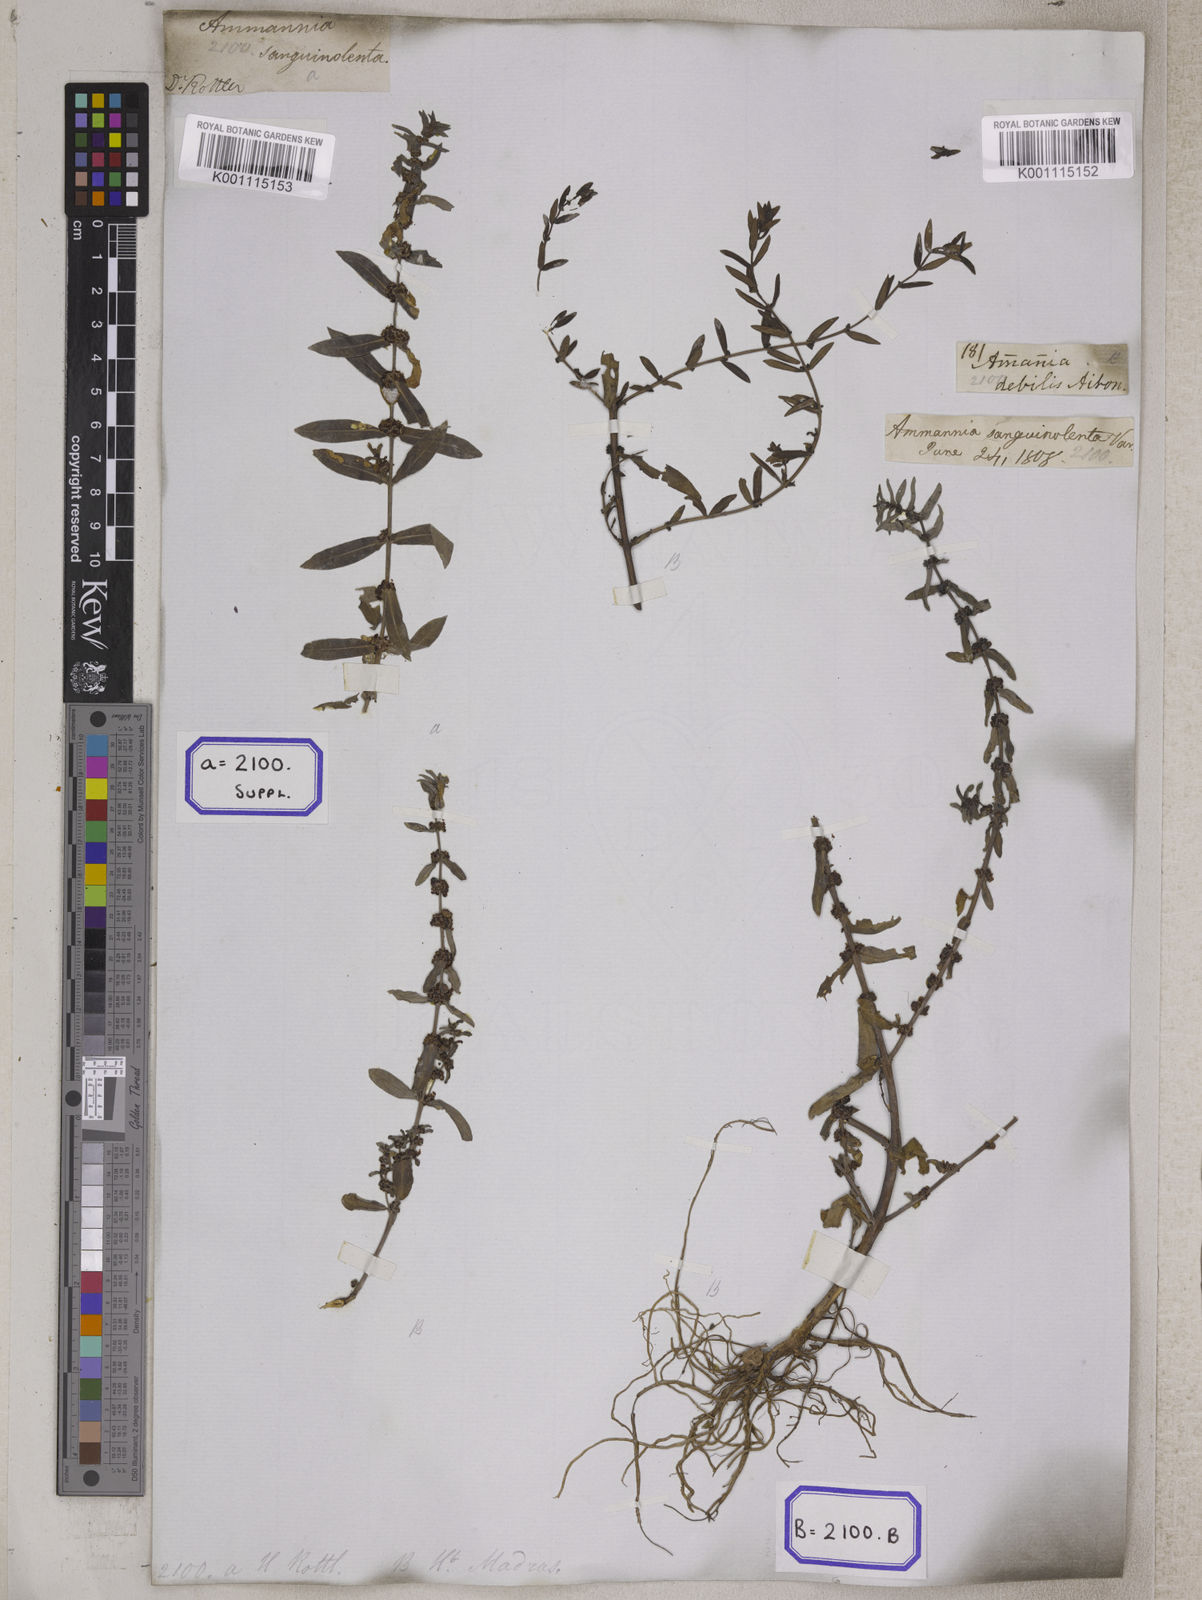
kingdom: Plantae
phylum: Tracheophyta
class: Magnoliopsida
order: Myrtales
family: Lythraceae
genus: Ammannia
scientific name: Ammannia
